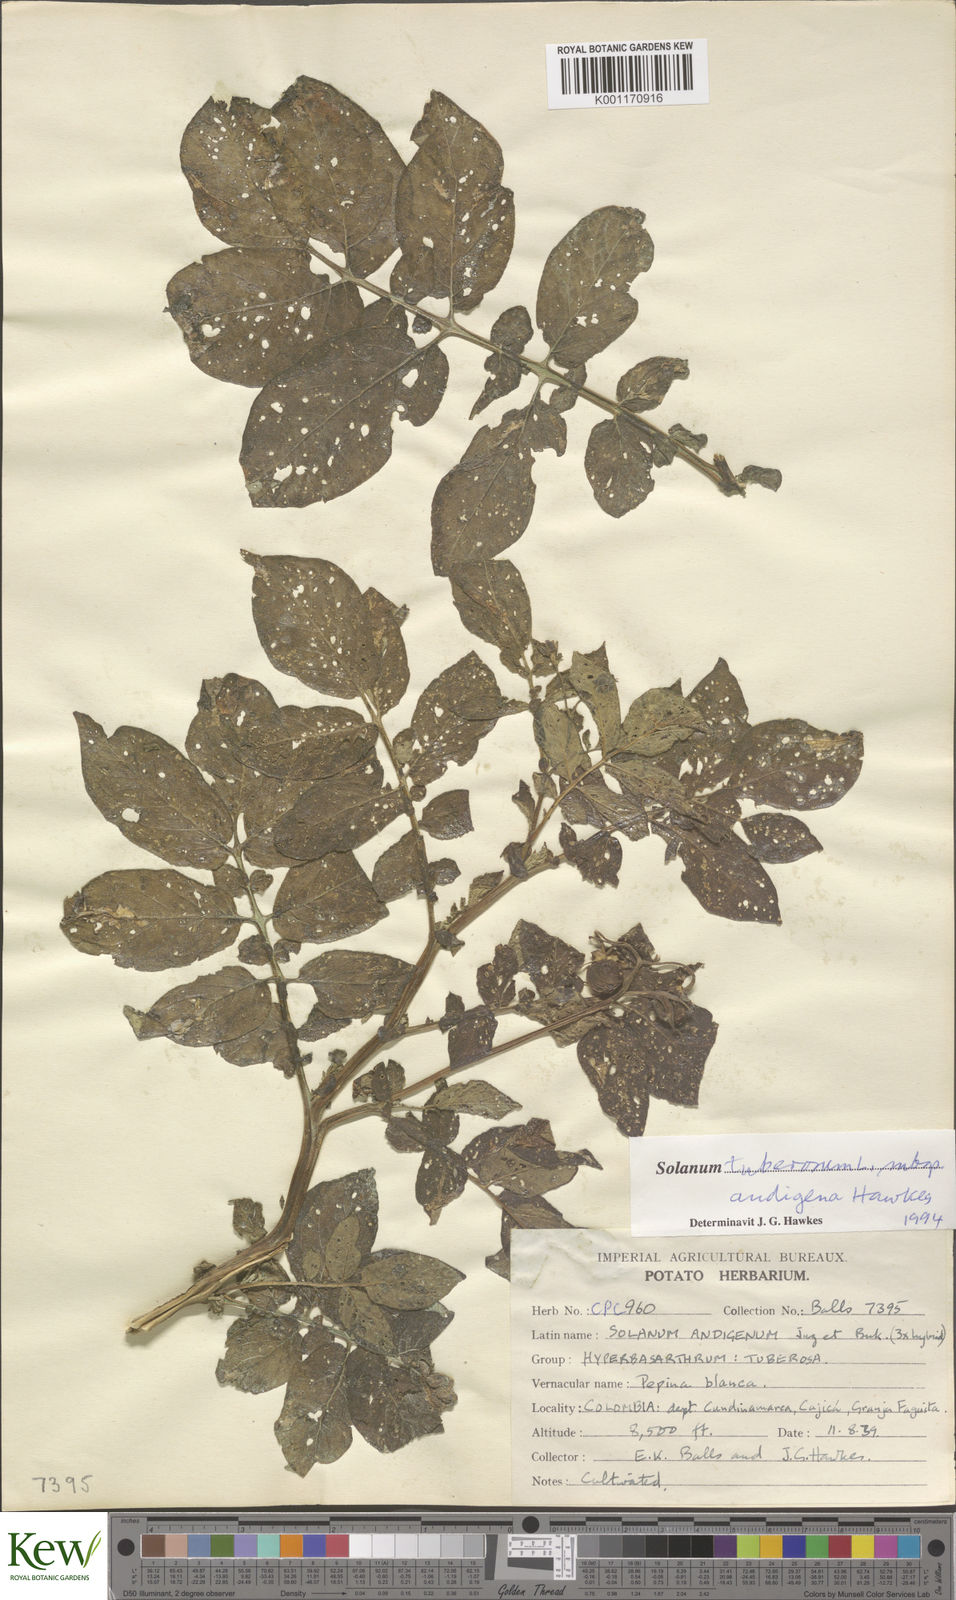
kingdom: Plantae
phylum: Tracheophyta
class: Magnoliopsida
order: Solanales
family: Solanaceae
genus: Solanum
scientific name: Solanum tuberosum
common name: Potato
